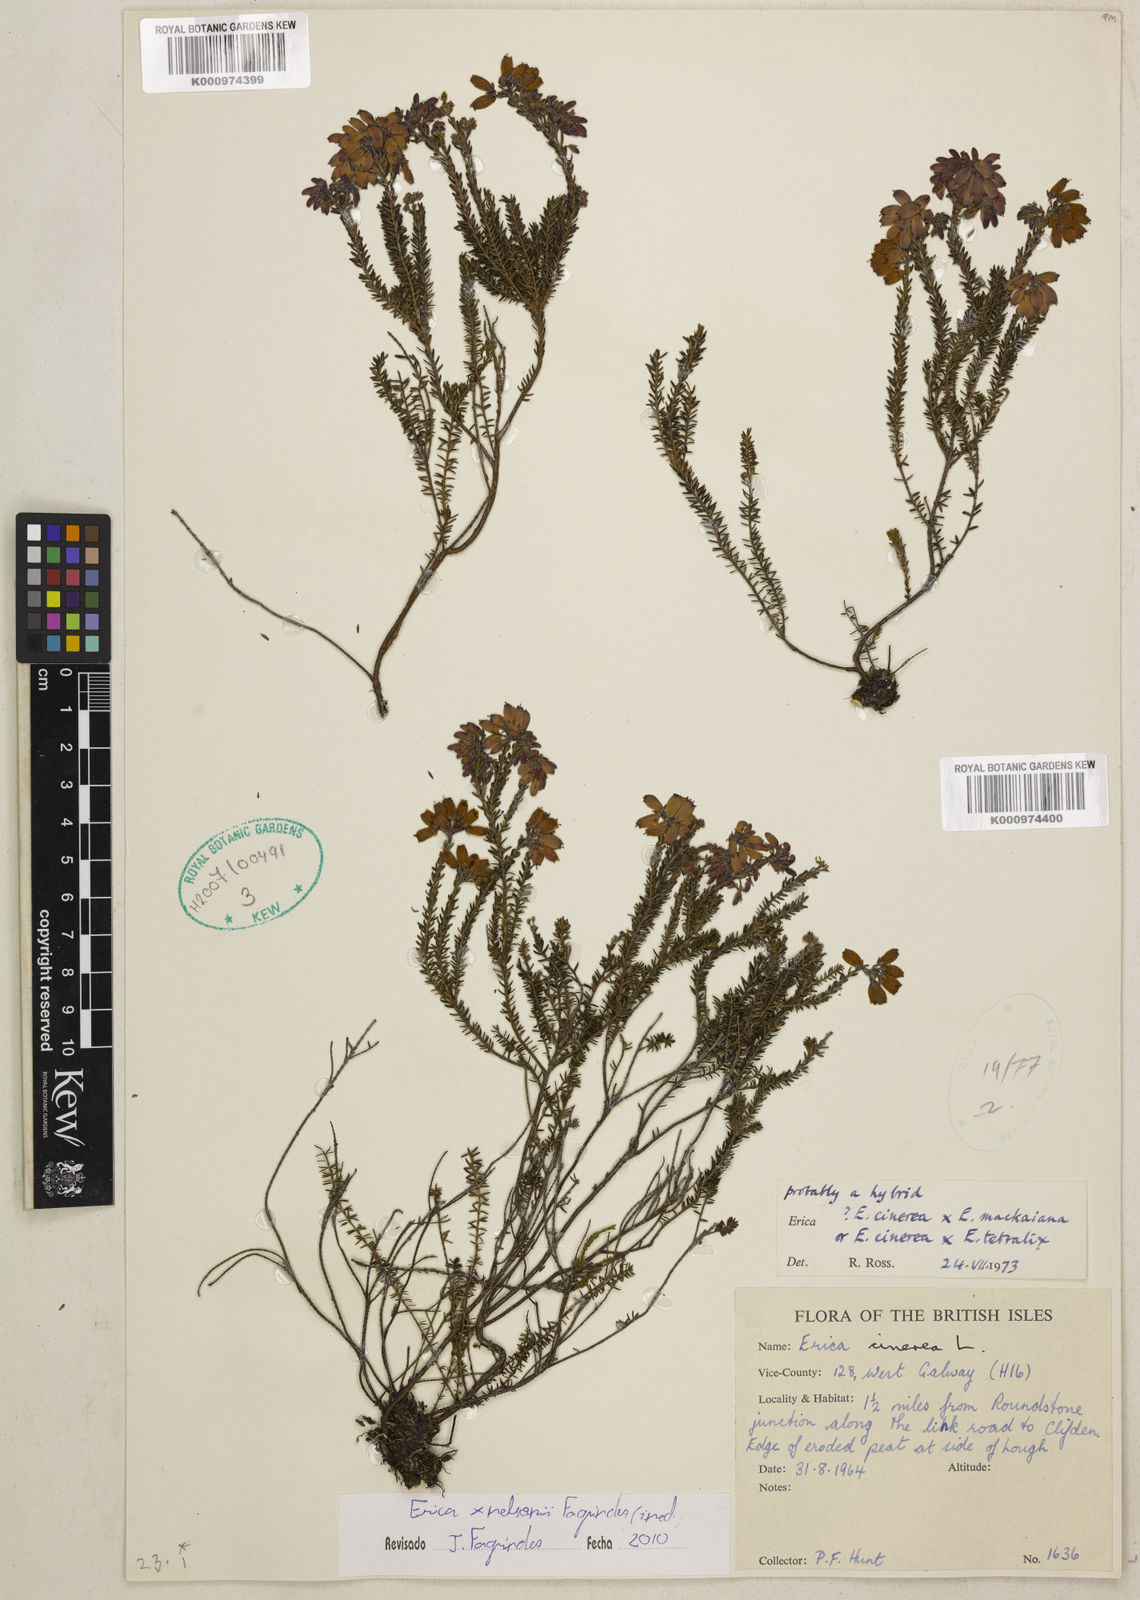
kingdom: Plantae
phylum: Tracheophyta
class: Magnoliopsida
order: Ericales
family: Ericaceae
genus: Erica
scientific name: Erica
